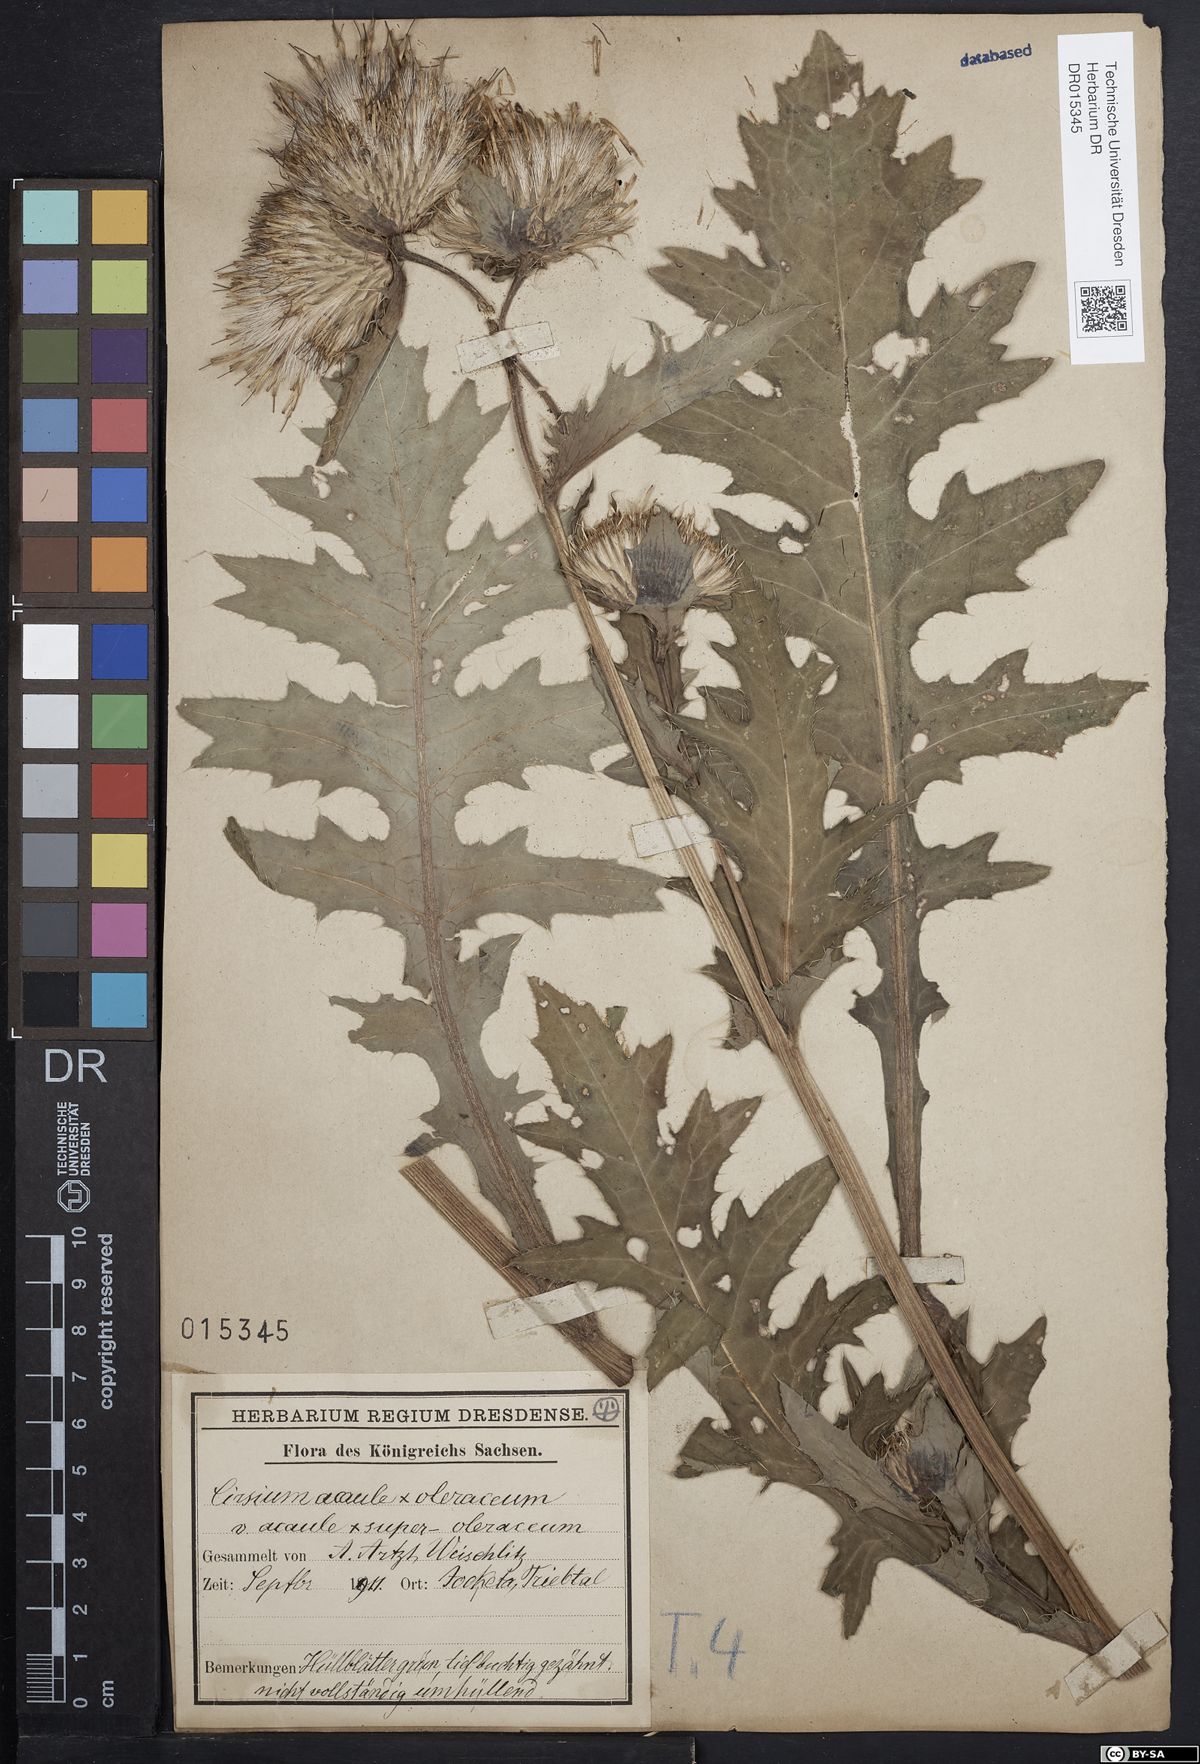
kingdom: Plantae
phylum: Tracheophyta
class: Magnoliopsida
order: Asterales
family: Asteraceae
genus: Cirsium
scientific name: Cirsium rigens
